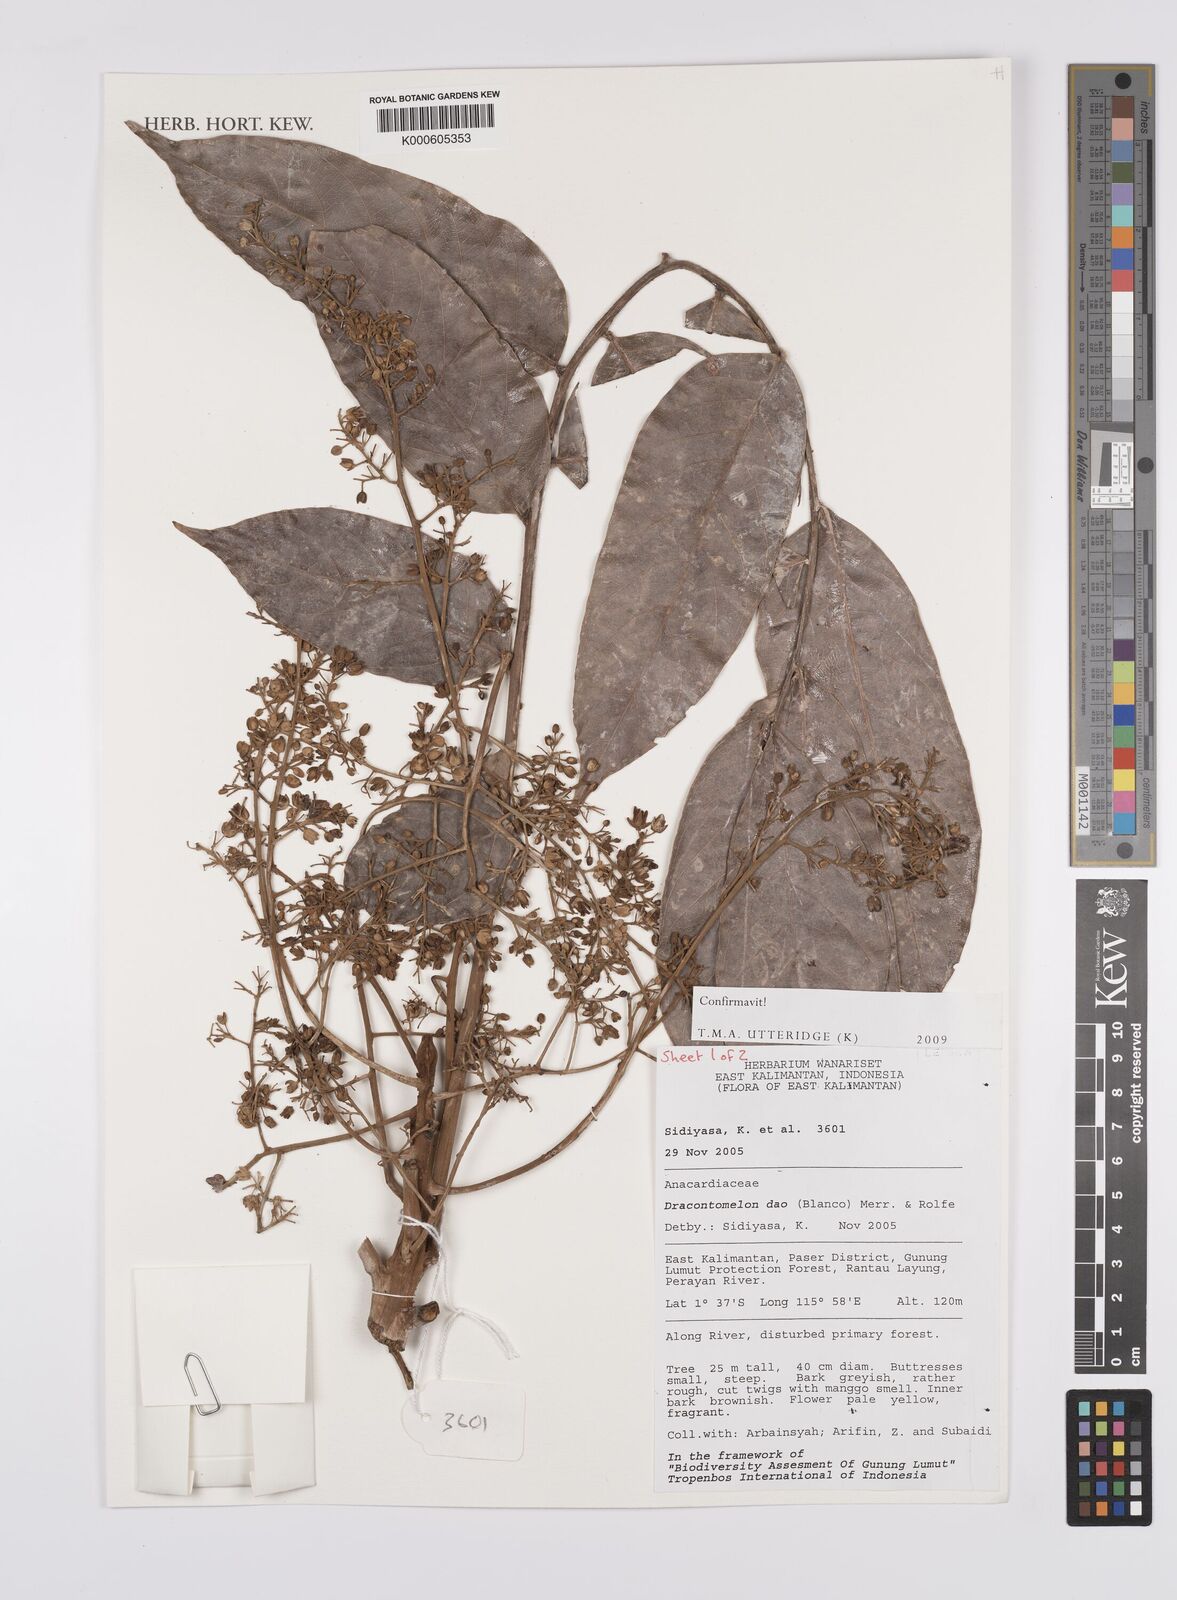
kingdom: Plantae
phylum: Tracheophyta
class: Magnoliopsida
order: Sapindales
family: Anacardiaceae
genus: Dracontomelon
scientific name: Dracontomelon dao
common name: Argus pheasant-tree
